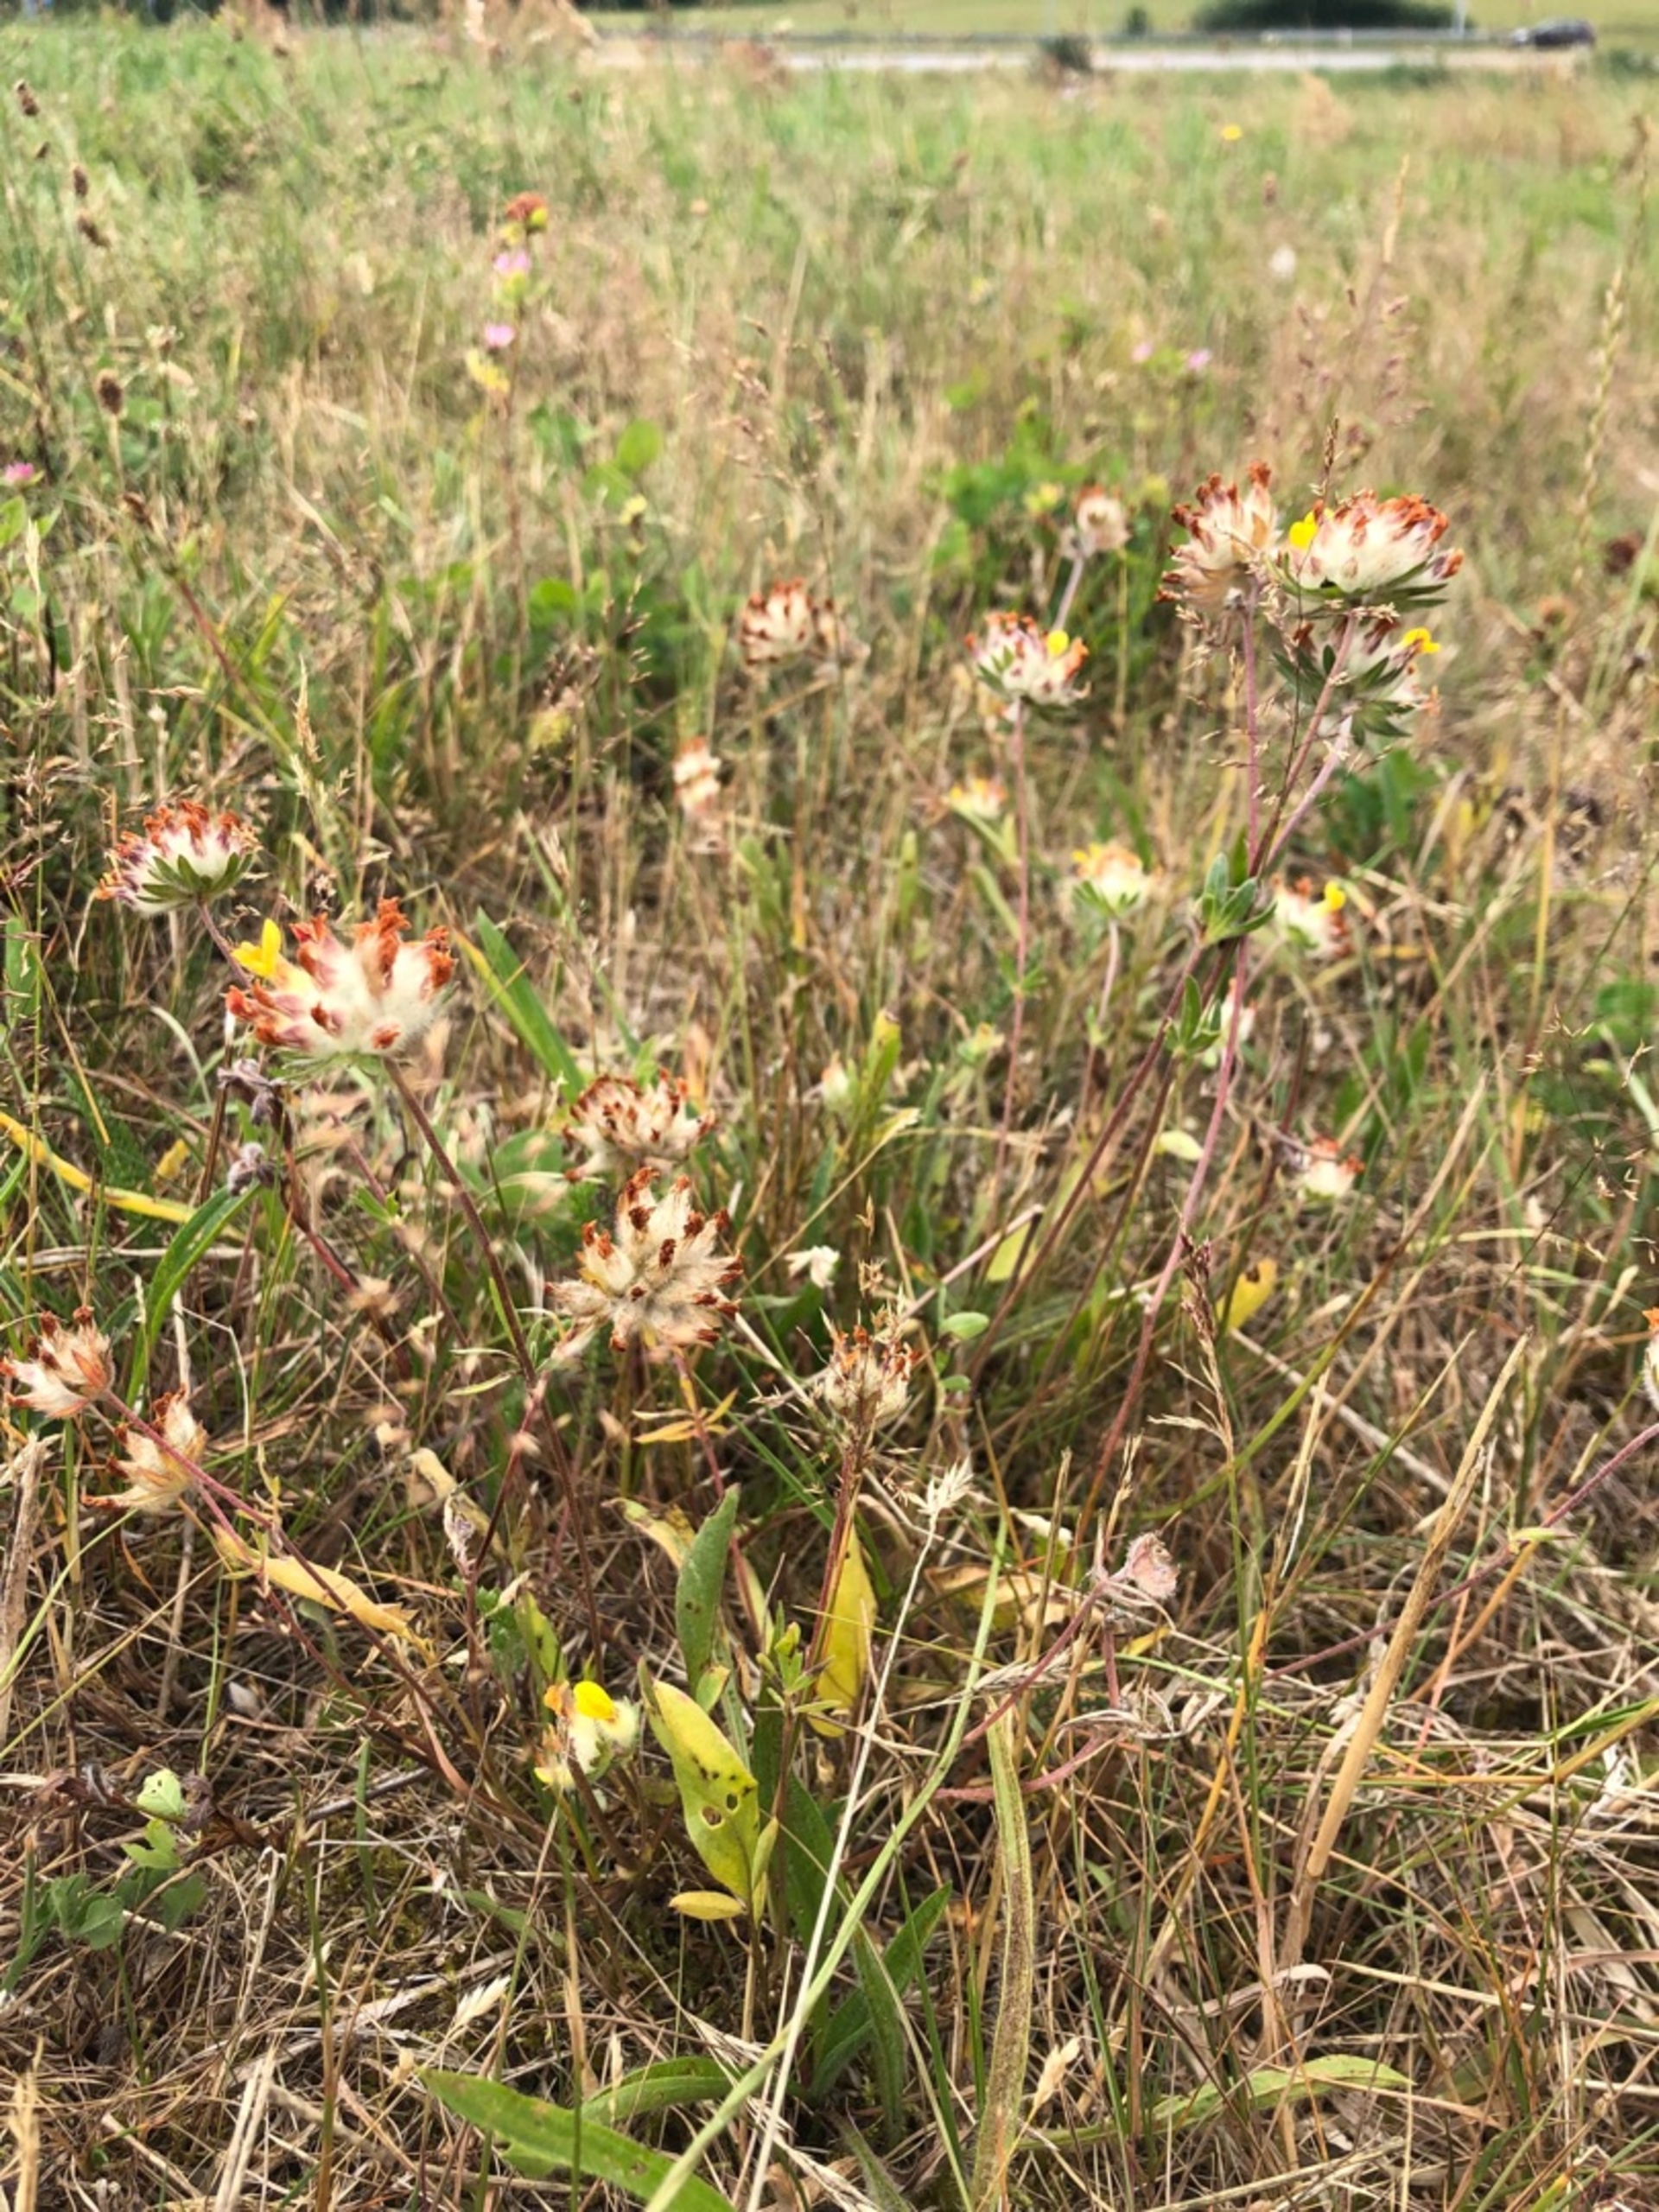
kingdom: Plantae
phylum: Tracheophyta
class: Magnoliopsida
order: Fabales
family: Fabaceae
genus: Anthyllis
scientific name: Anthyllis vulneraria
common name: Rundbælg
